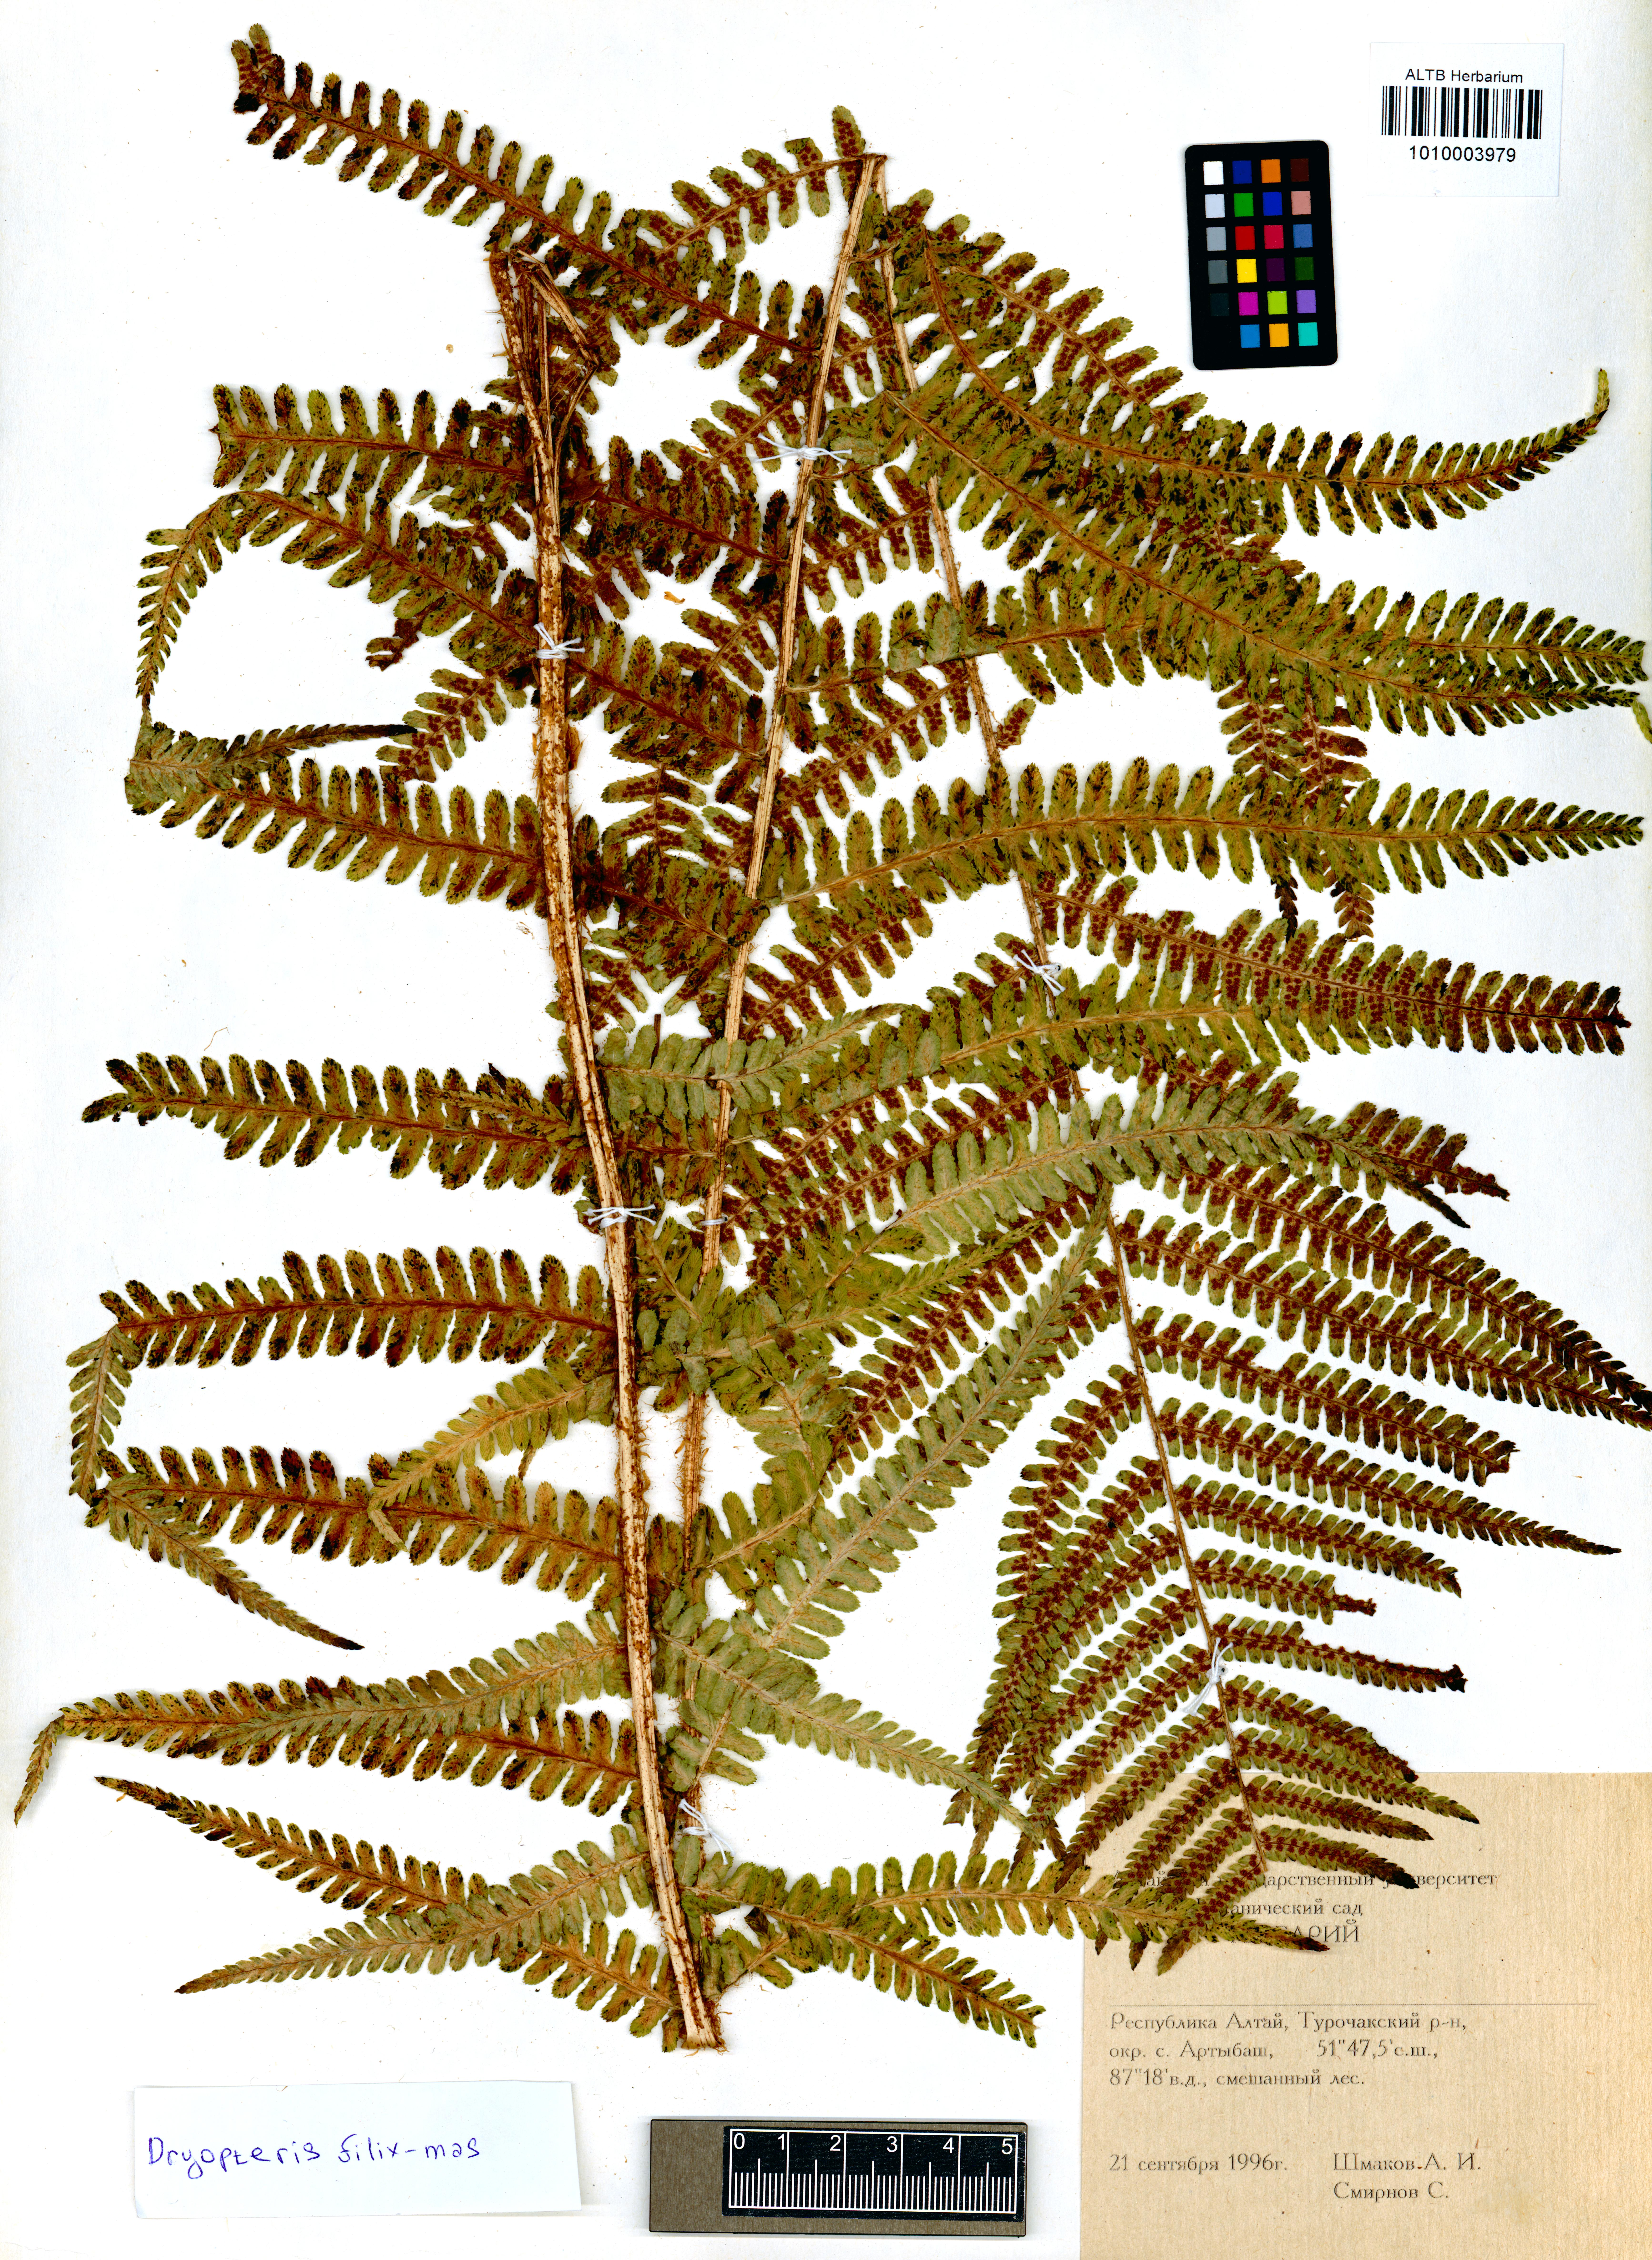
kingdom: Plantae
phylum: Tracheophyta
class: Polypodiopsida
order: Polypodiales
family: Dryopteridaceae
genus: Dryopteris
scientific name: Dryopteris filix-mas
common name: Male fern
